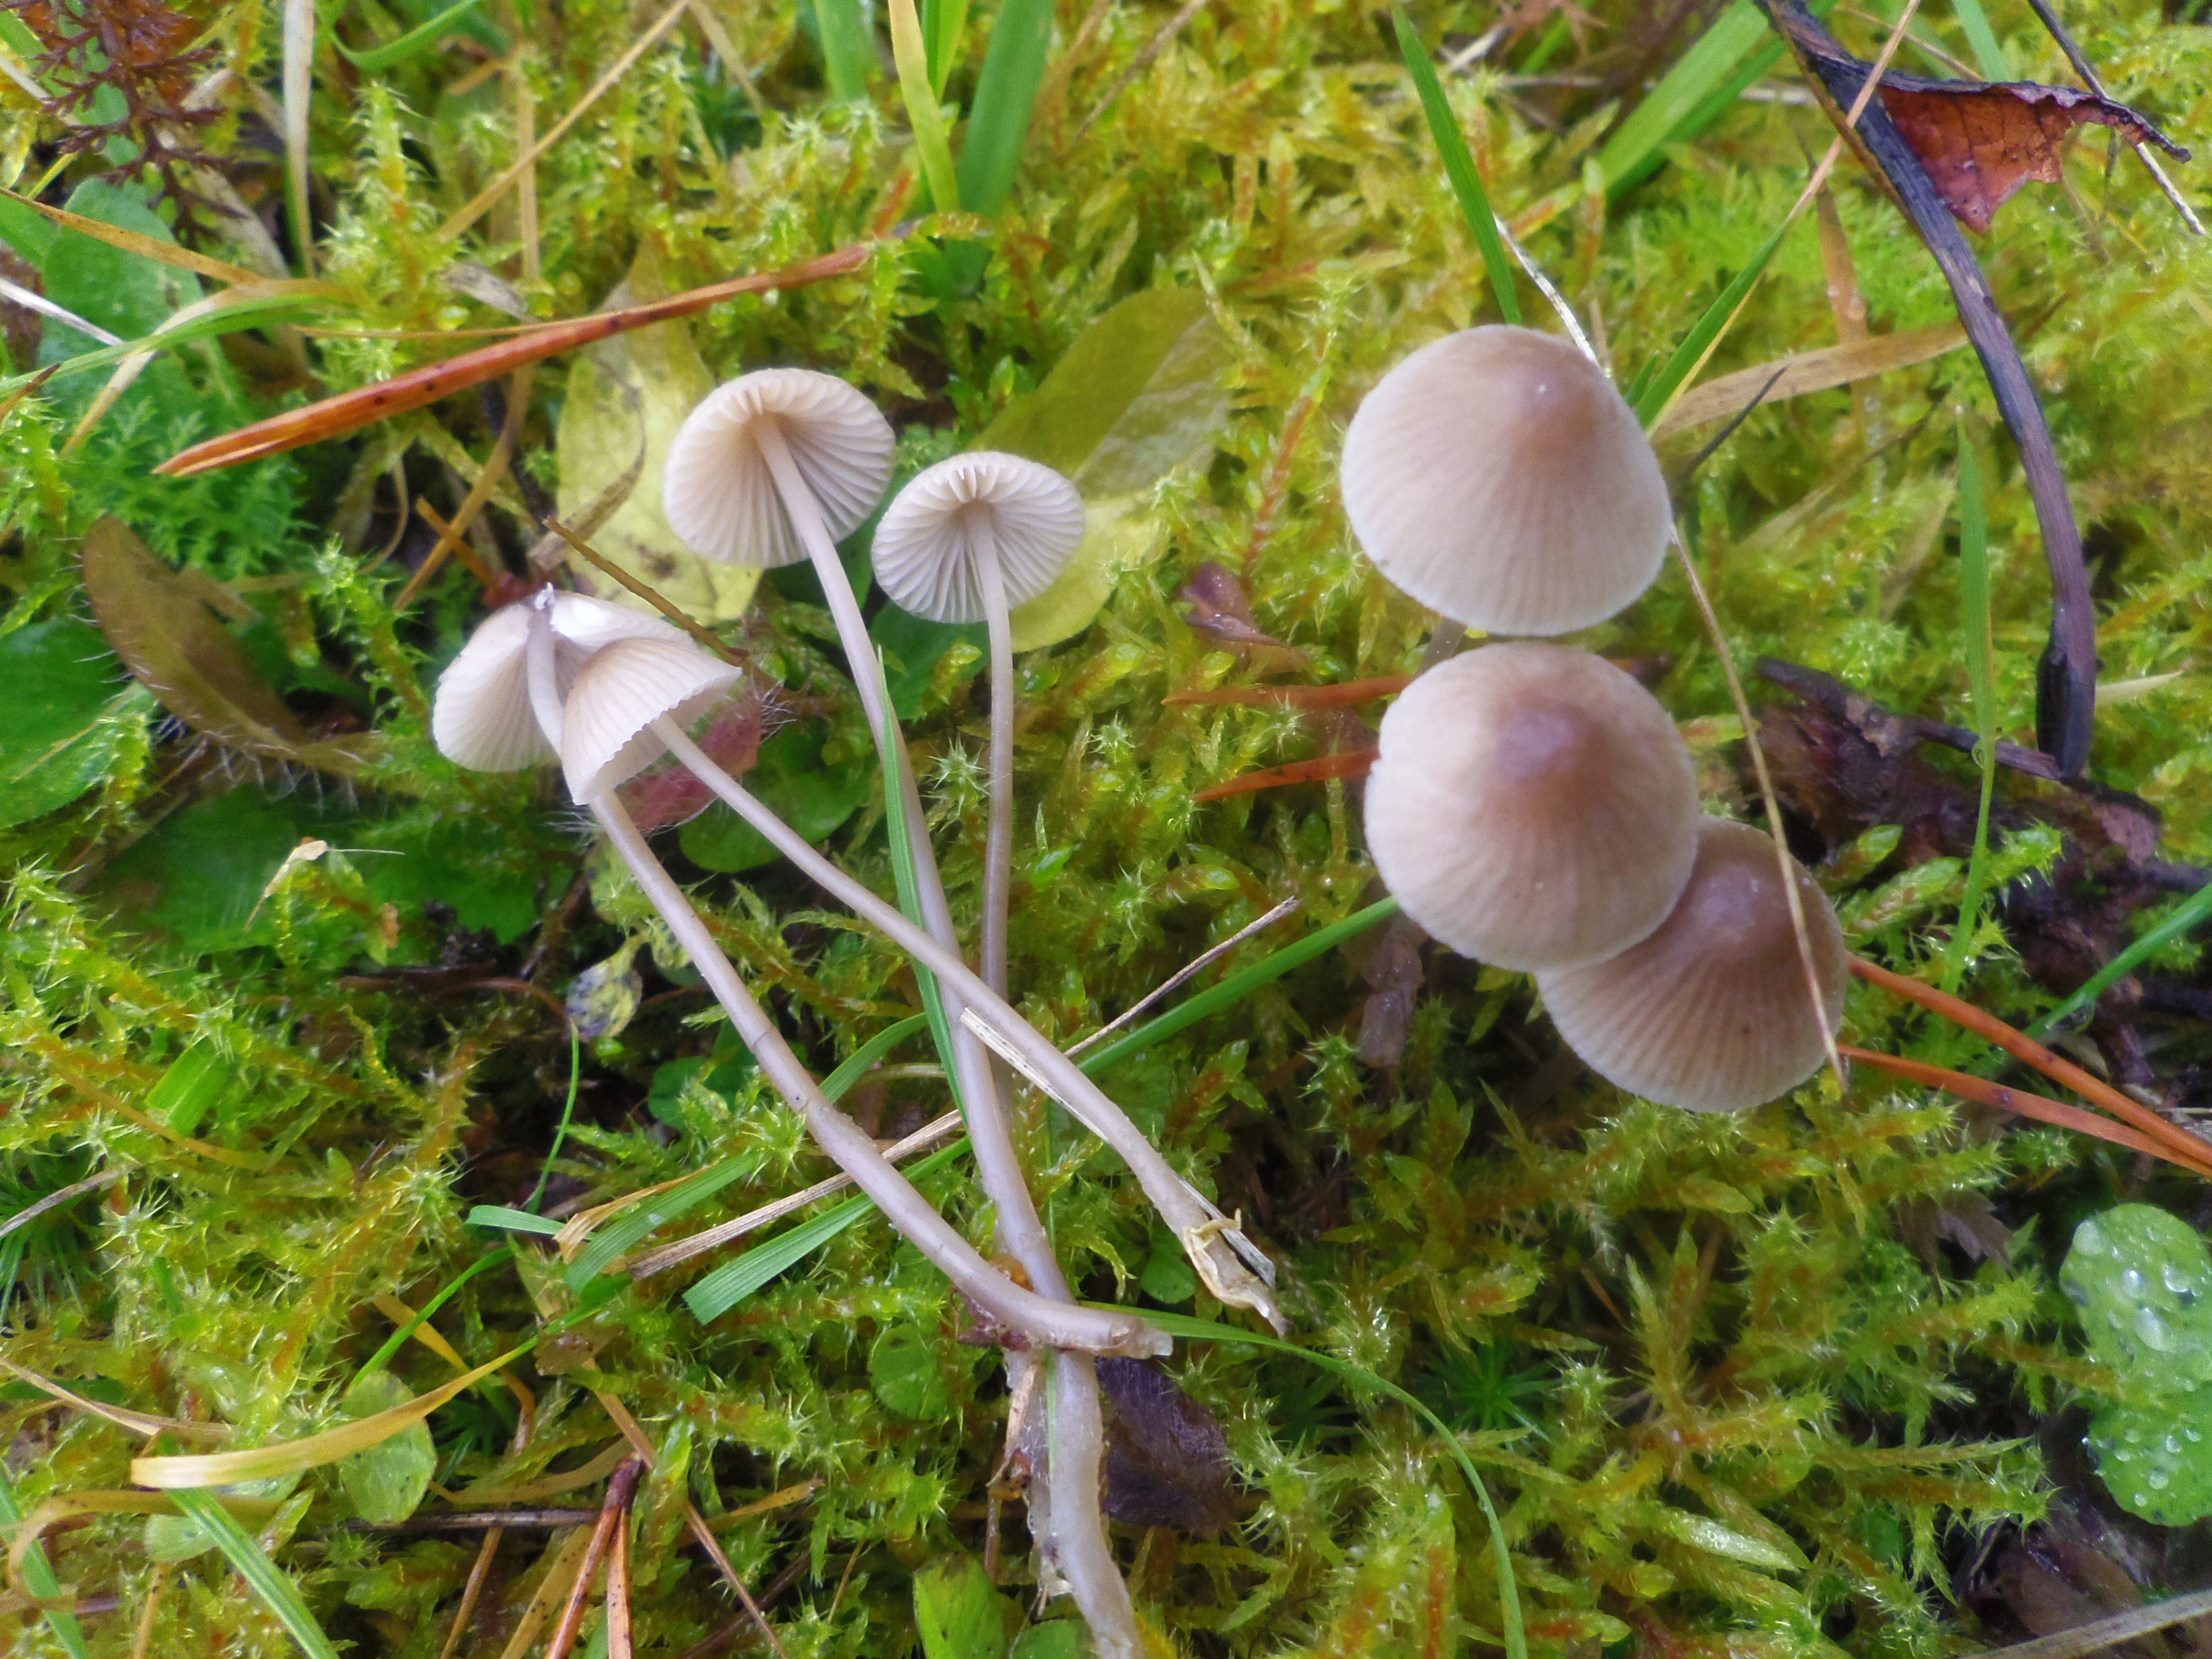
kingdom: Fungi
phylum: Basidiomycota
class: Agaricomycetes
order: Agaricales
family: Mycenaceae
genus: Mycena
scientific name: Mycena metata
